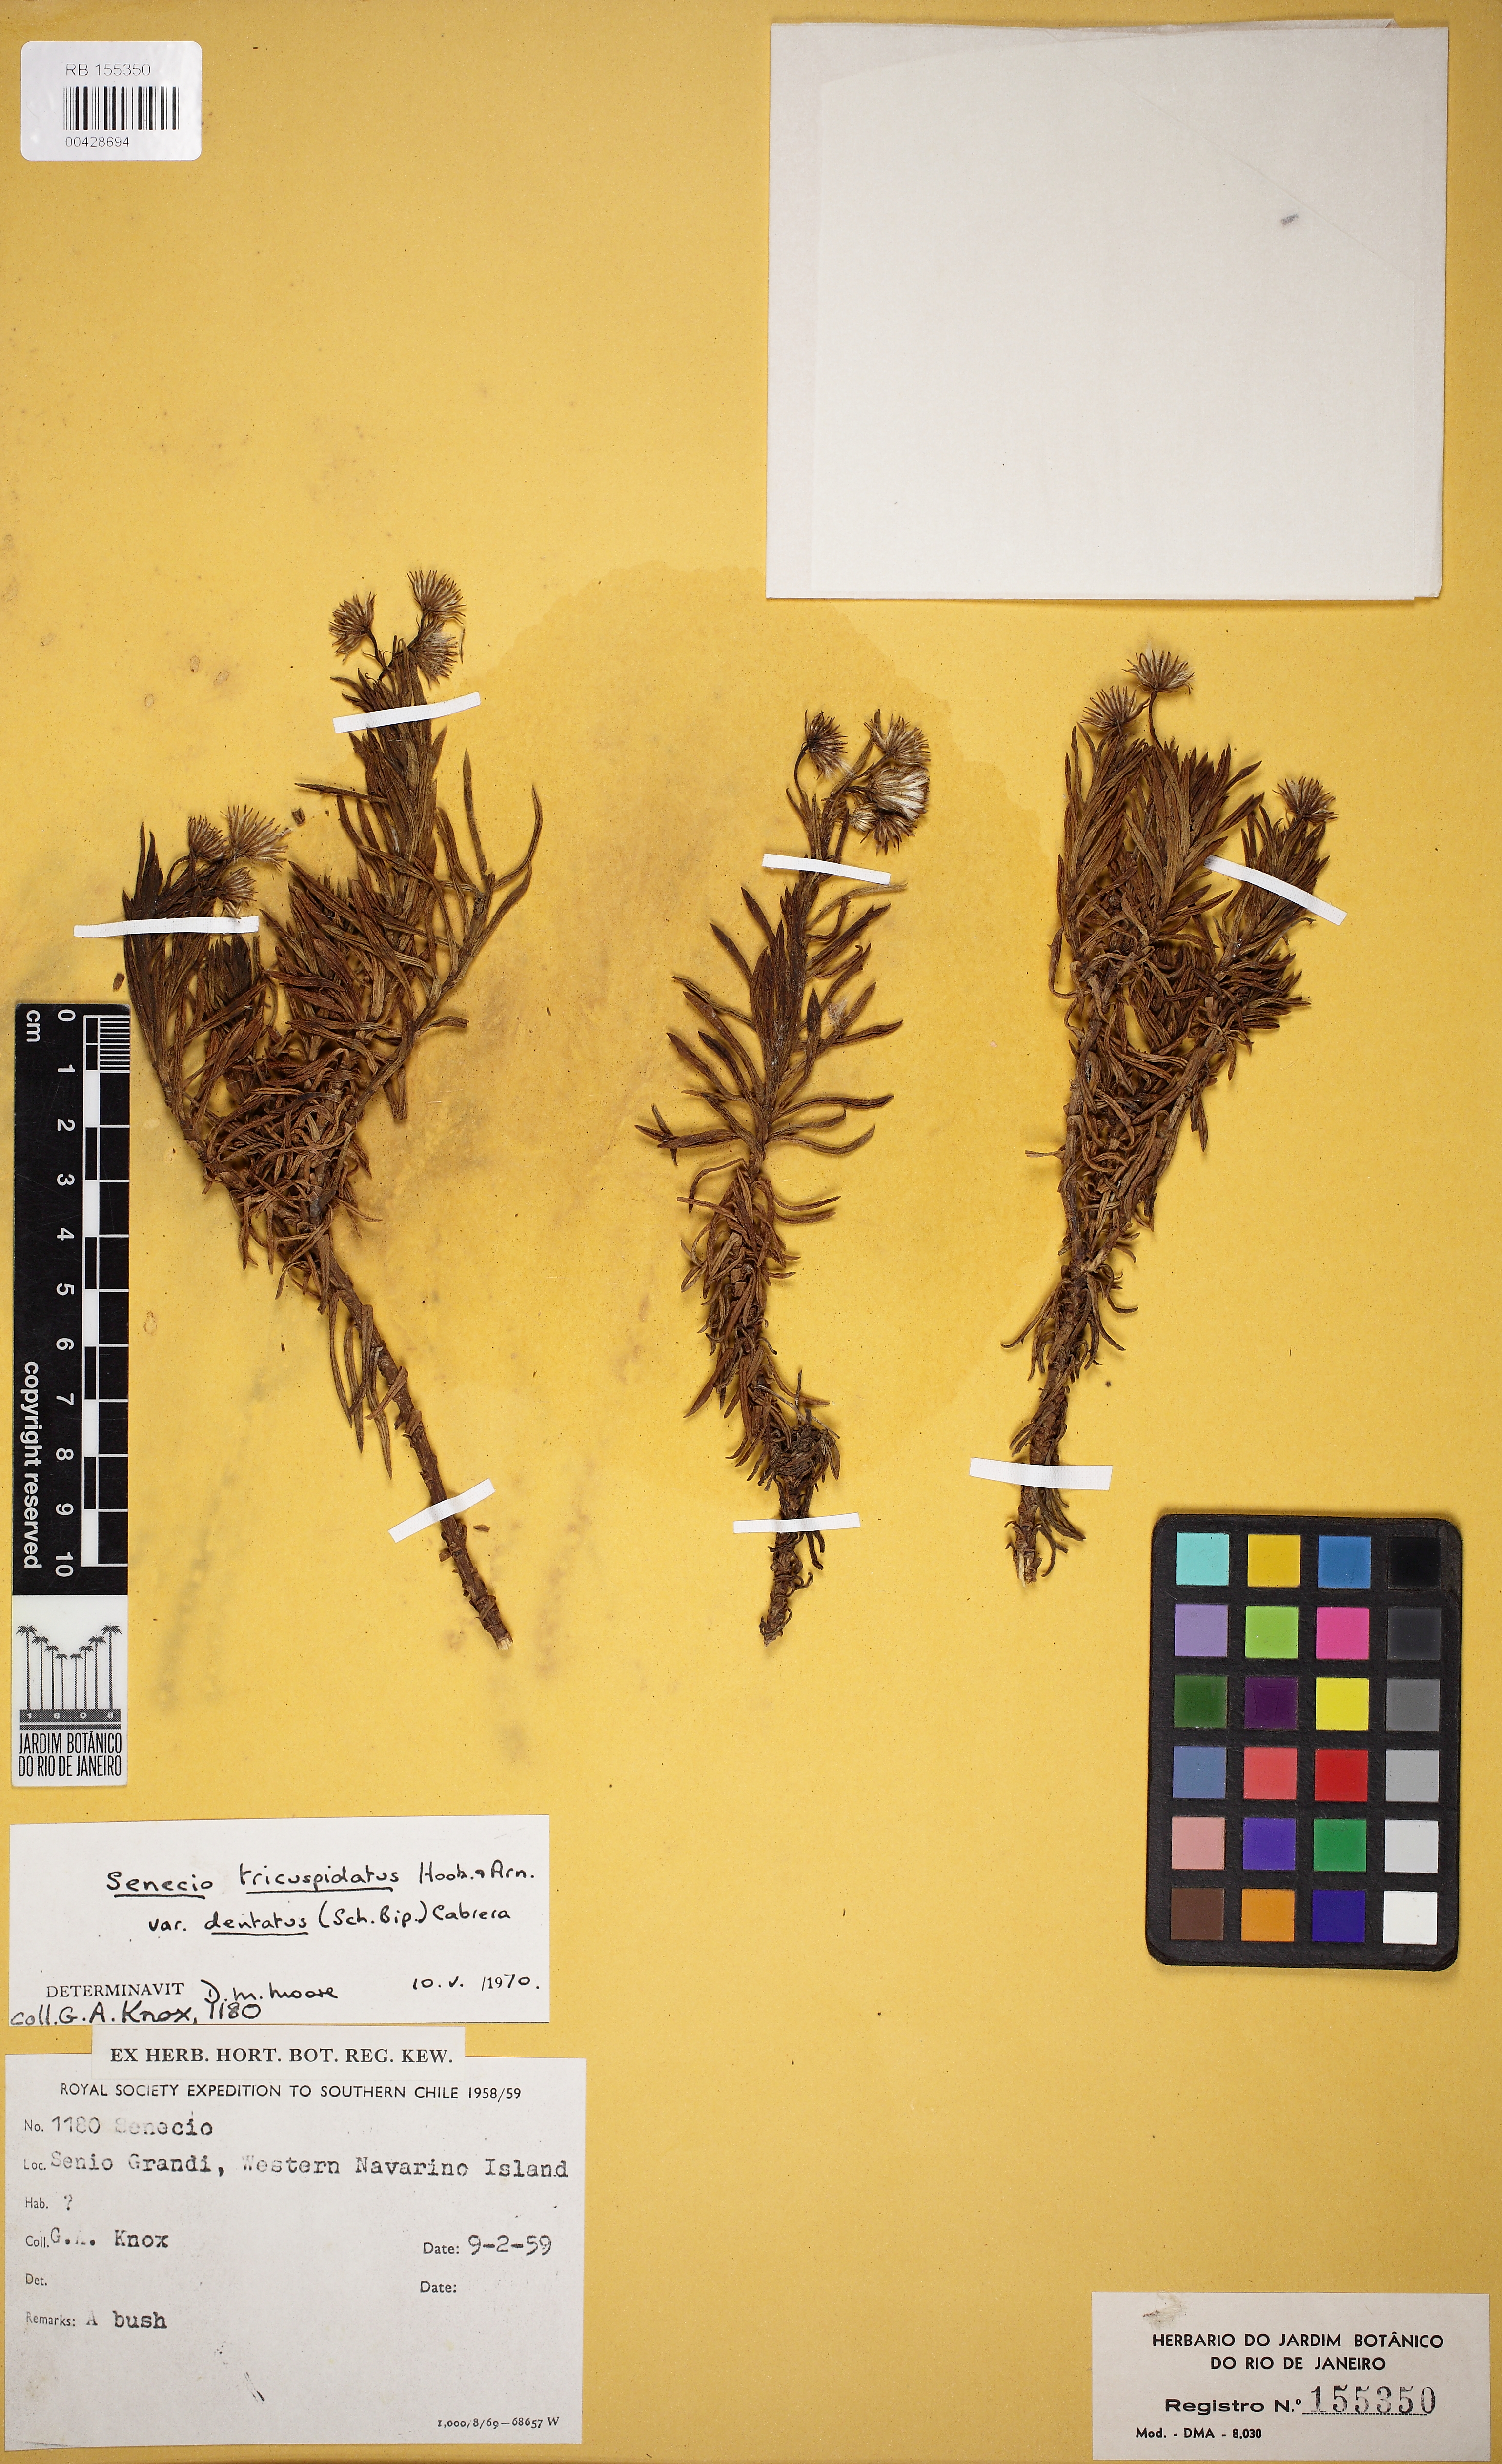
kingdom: Plantae
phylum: Tracheophyta
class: Magnoliopsida
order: Asterales
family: Asteraceae
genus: Senecio
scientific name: Senecio tricuspidatus
